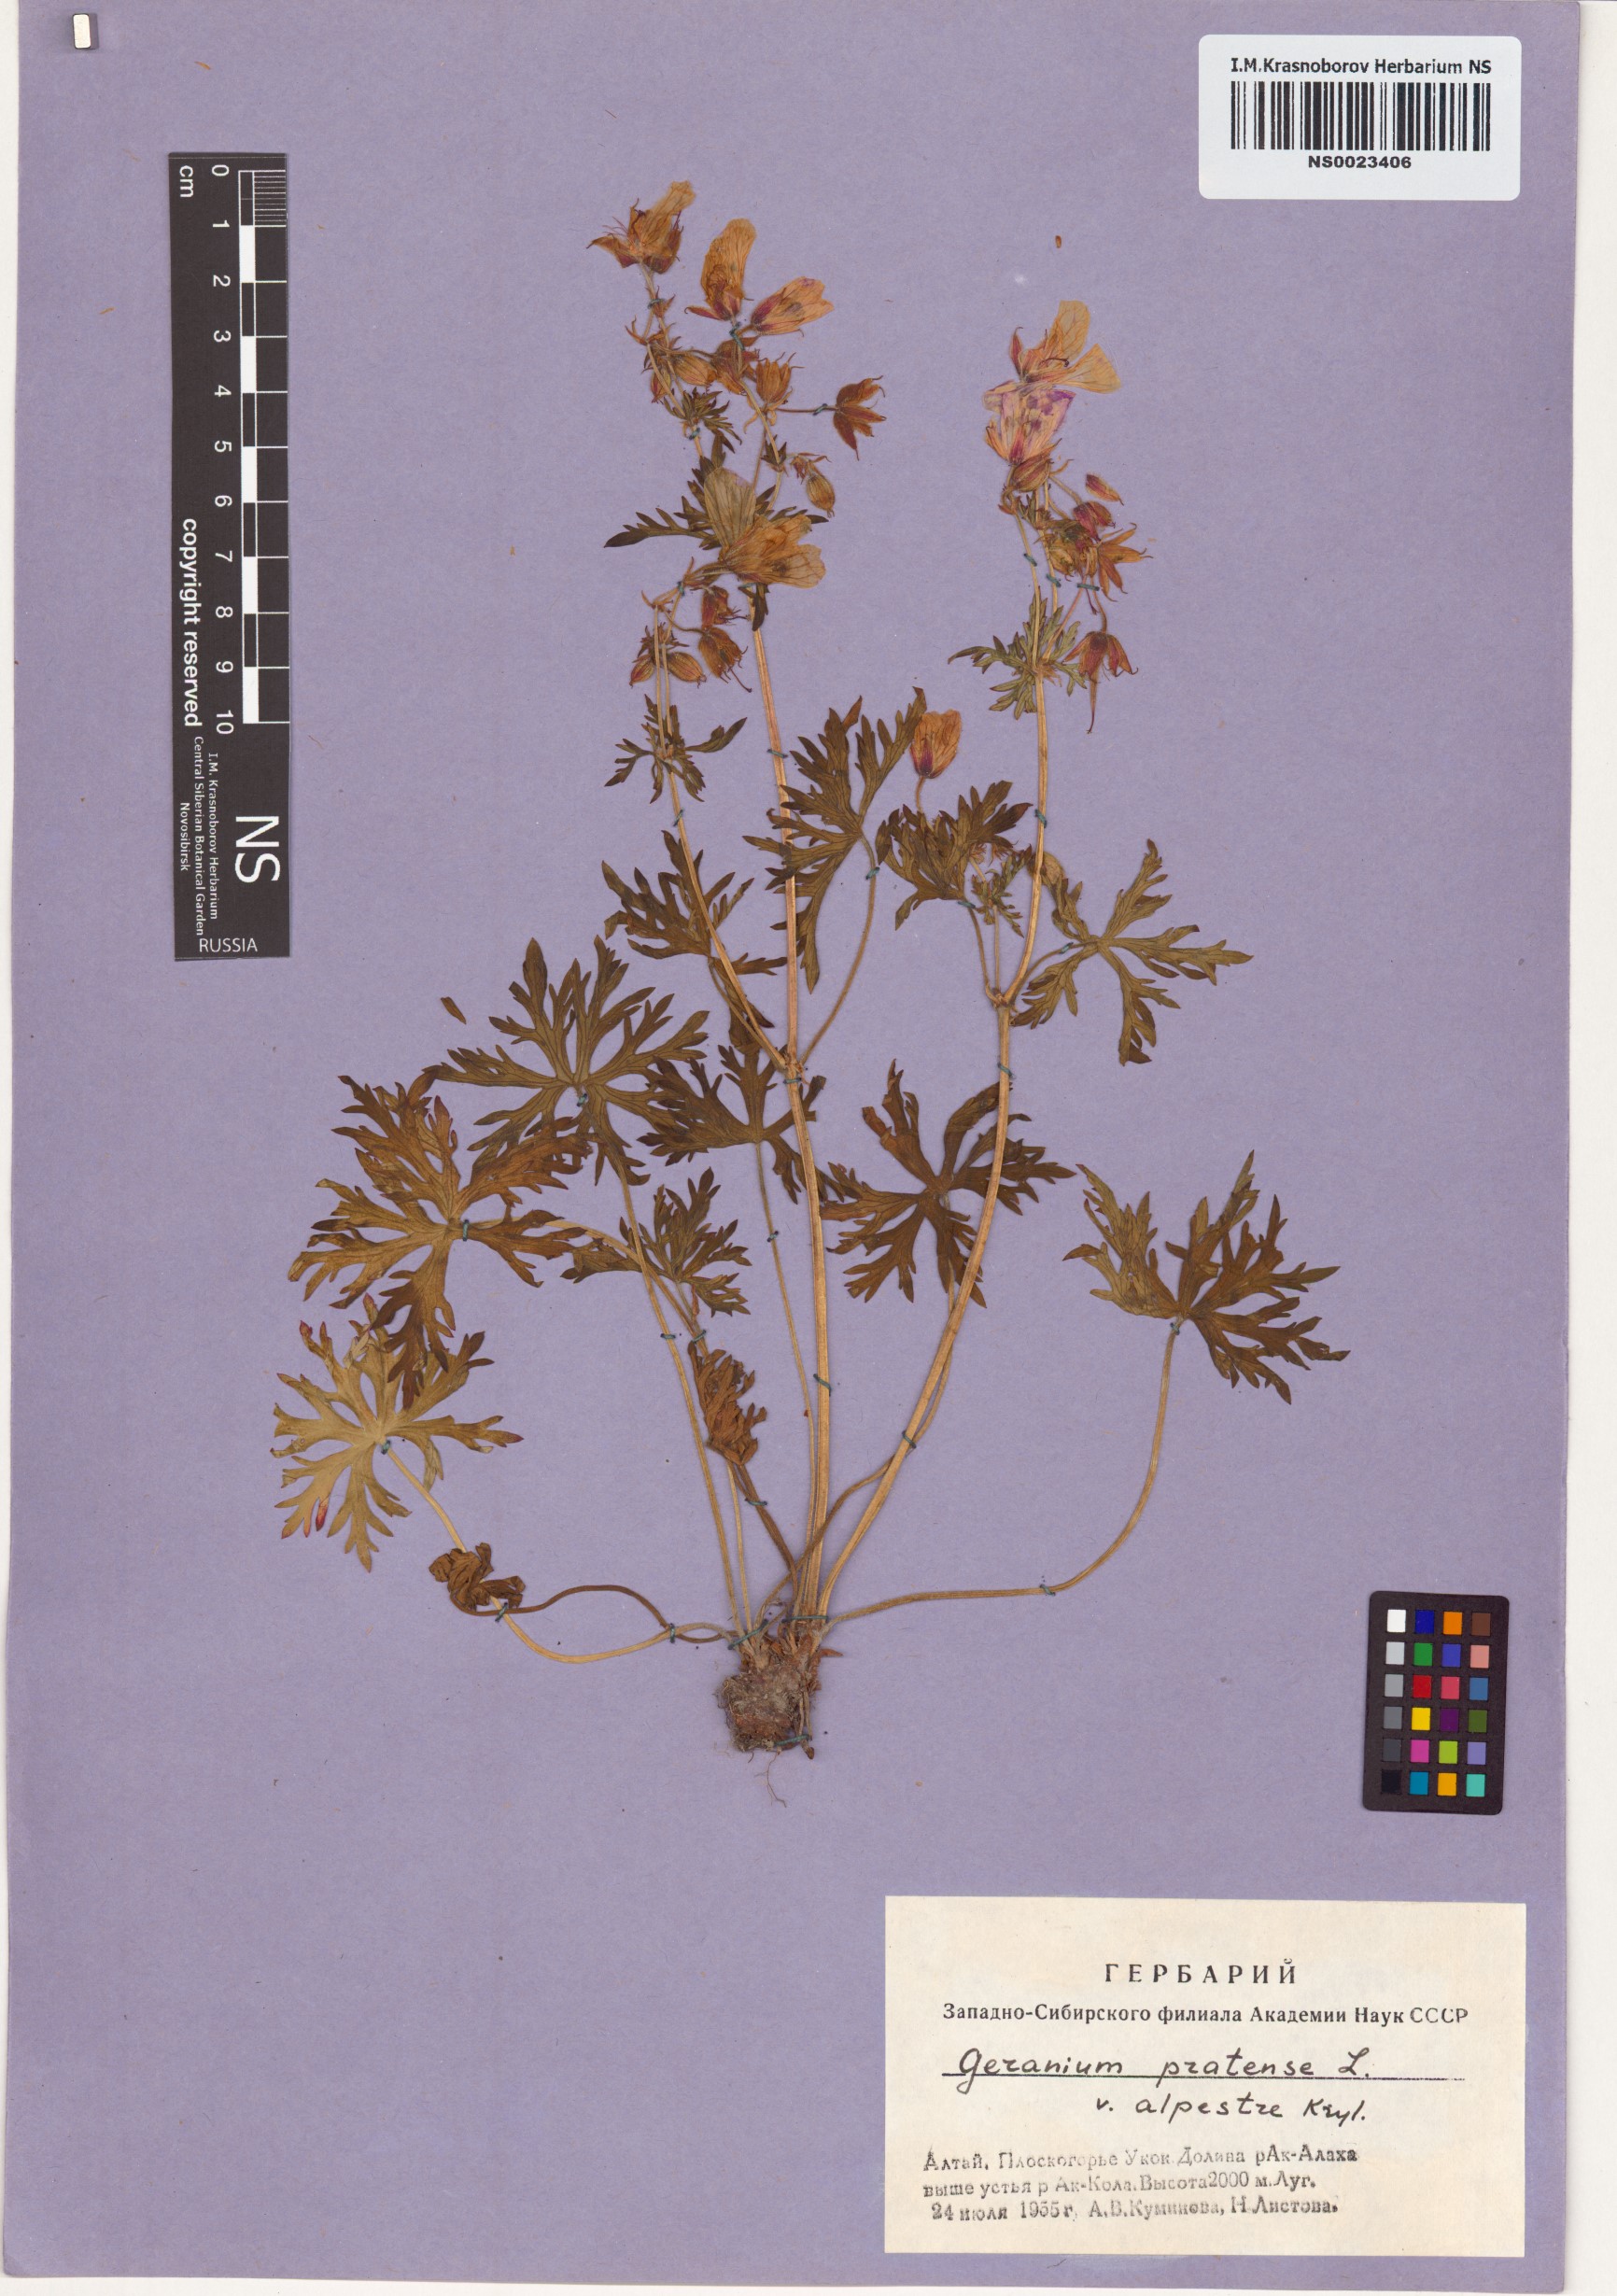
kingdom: Plantae
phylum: Tracheophyta
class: Magnoliopsida
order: Geraniales
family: Geraniaceae
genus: Geranium
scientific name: Geranium pratense
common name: Meadow crane's-bill
